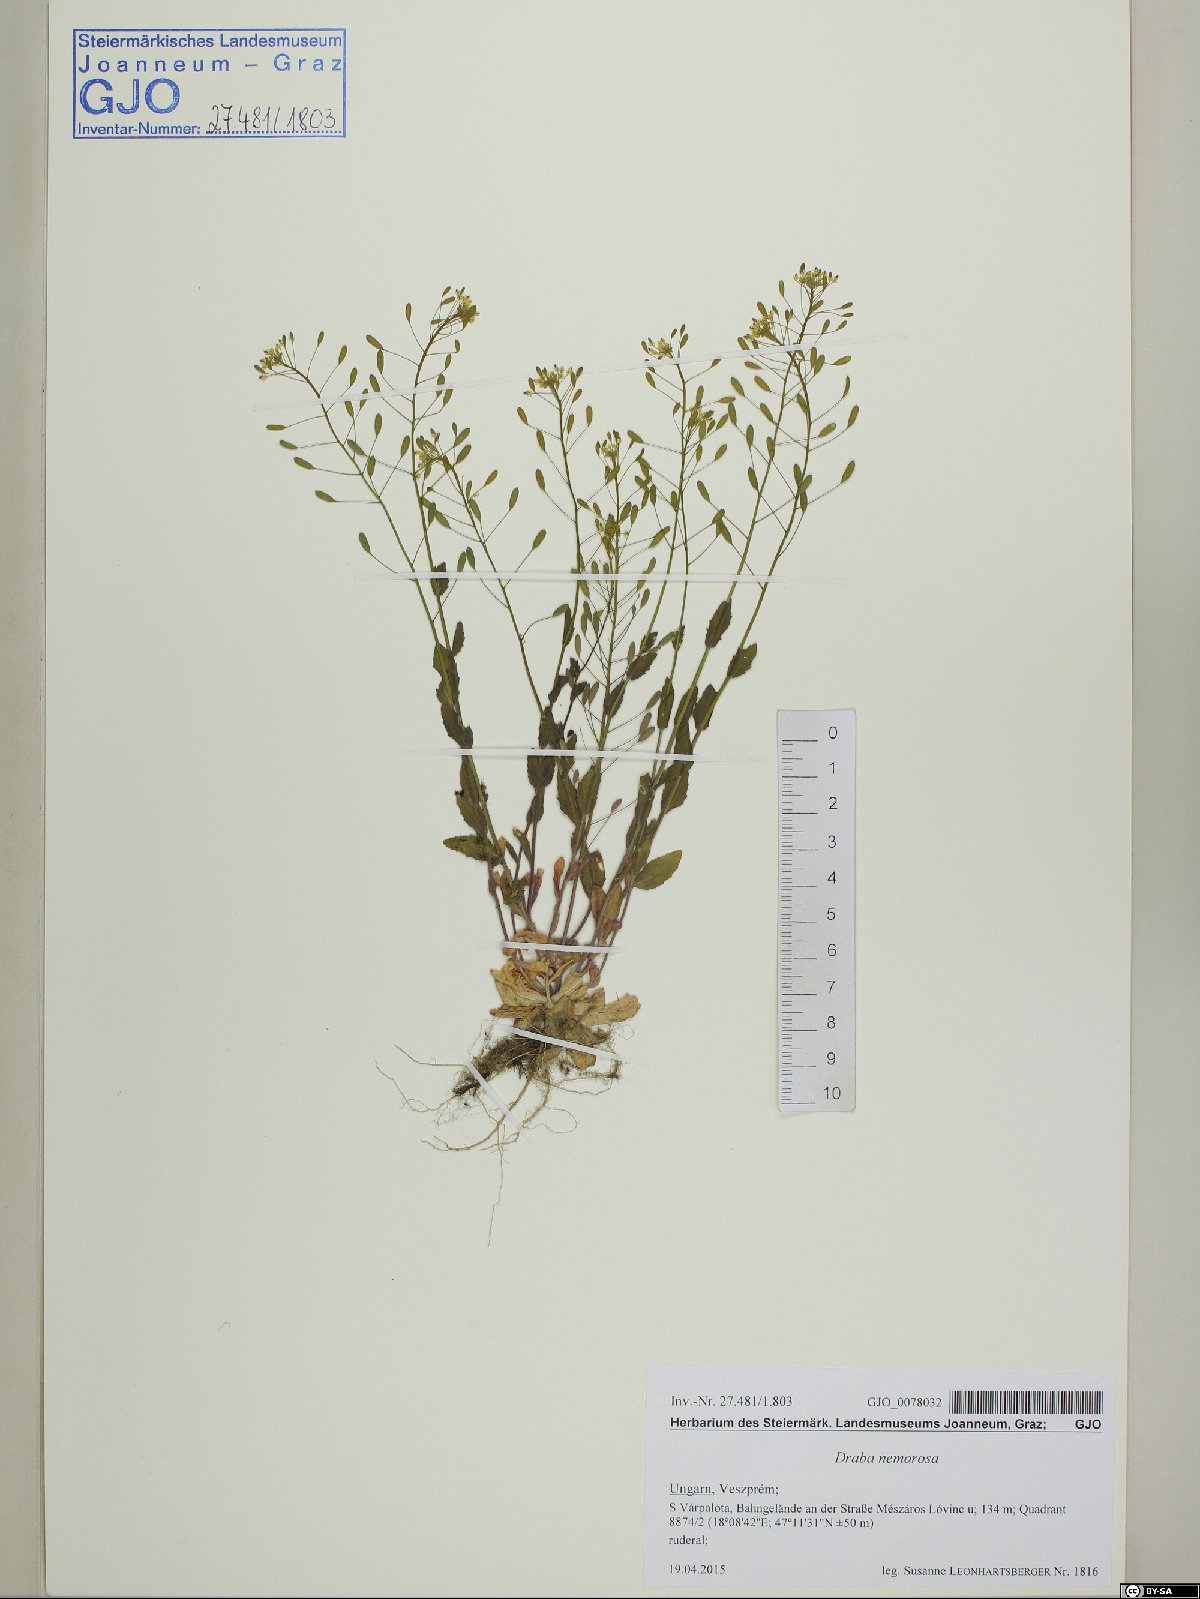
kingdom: Plantae
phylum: Tracheophyta
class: Magnoliopsida
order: Brassicales
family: Brassicaceae
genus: Draba
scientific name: Draba nemorosa
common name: Wood whitlow-grass
